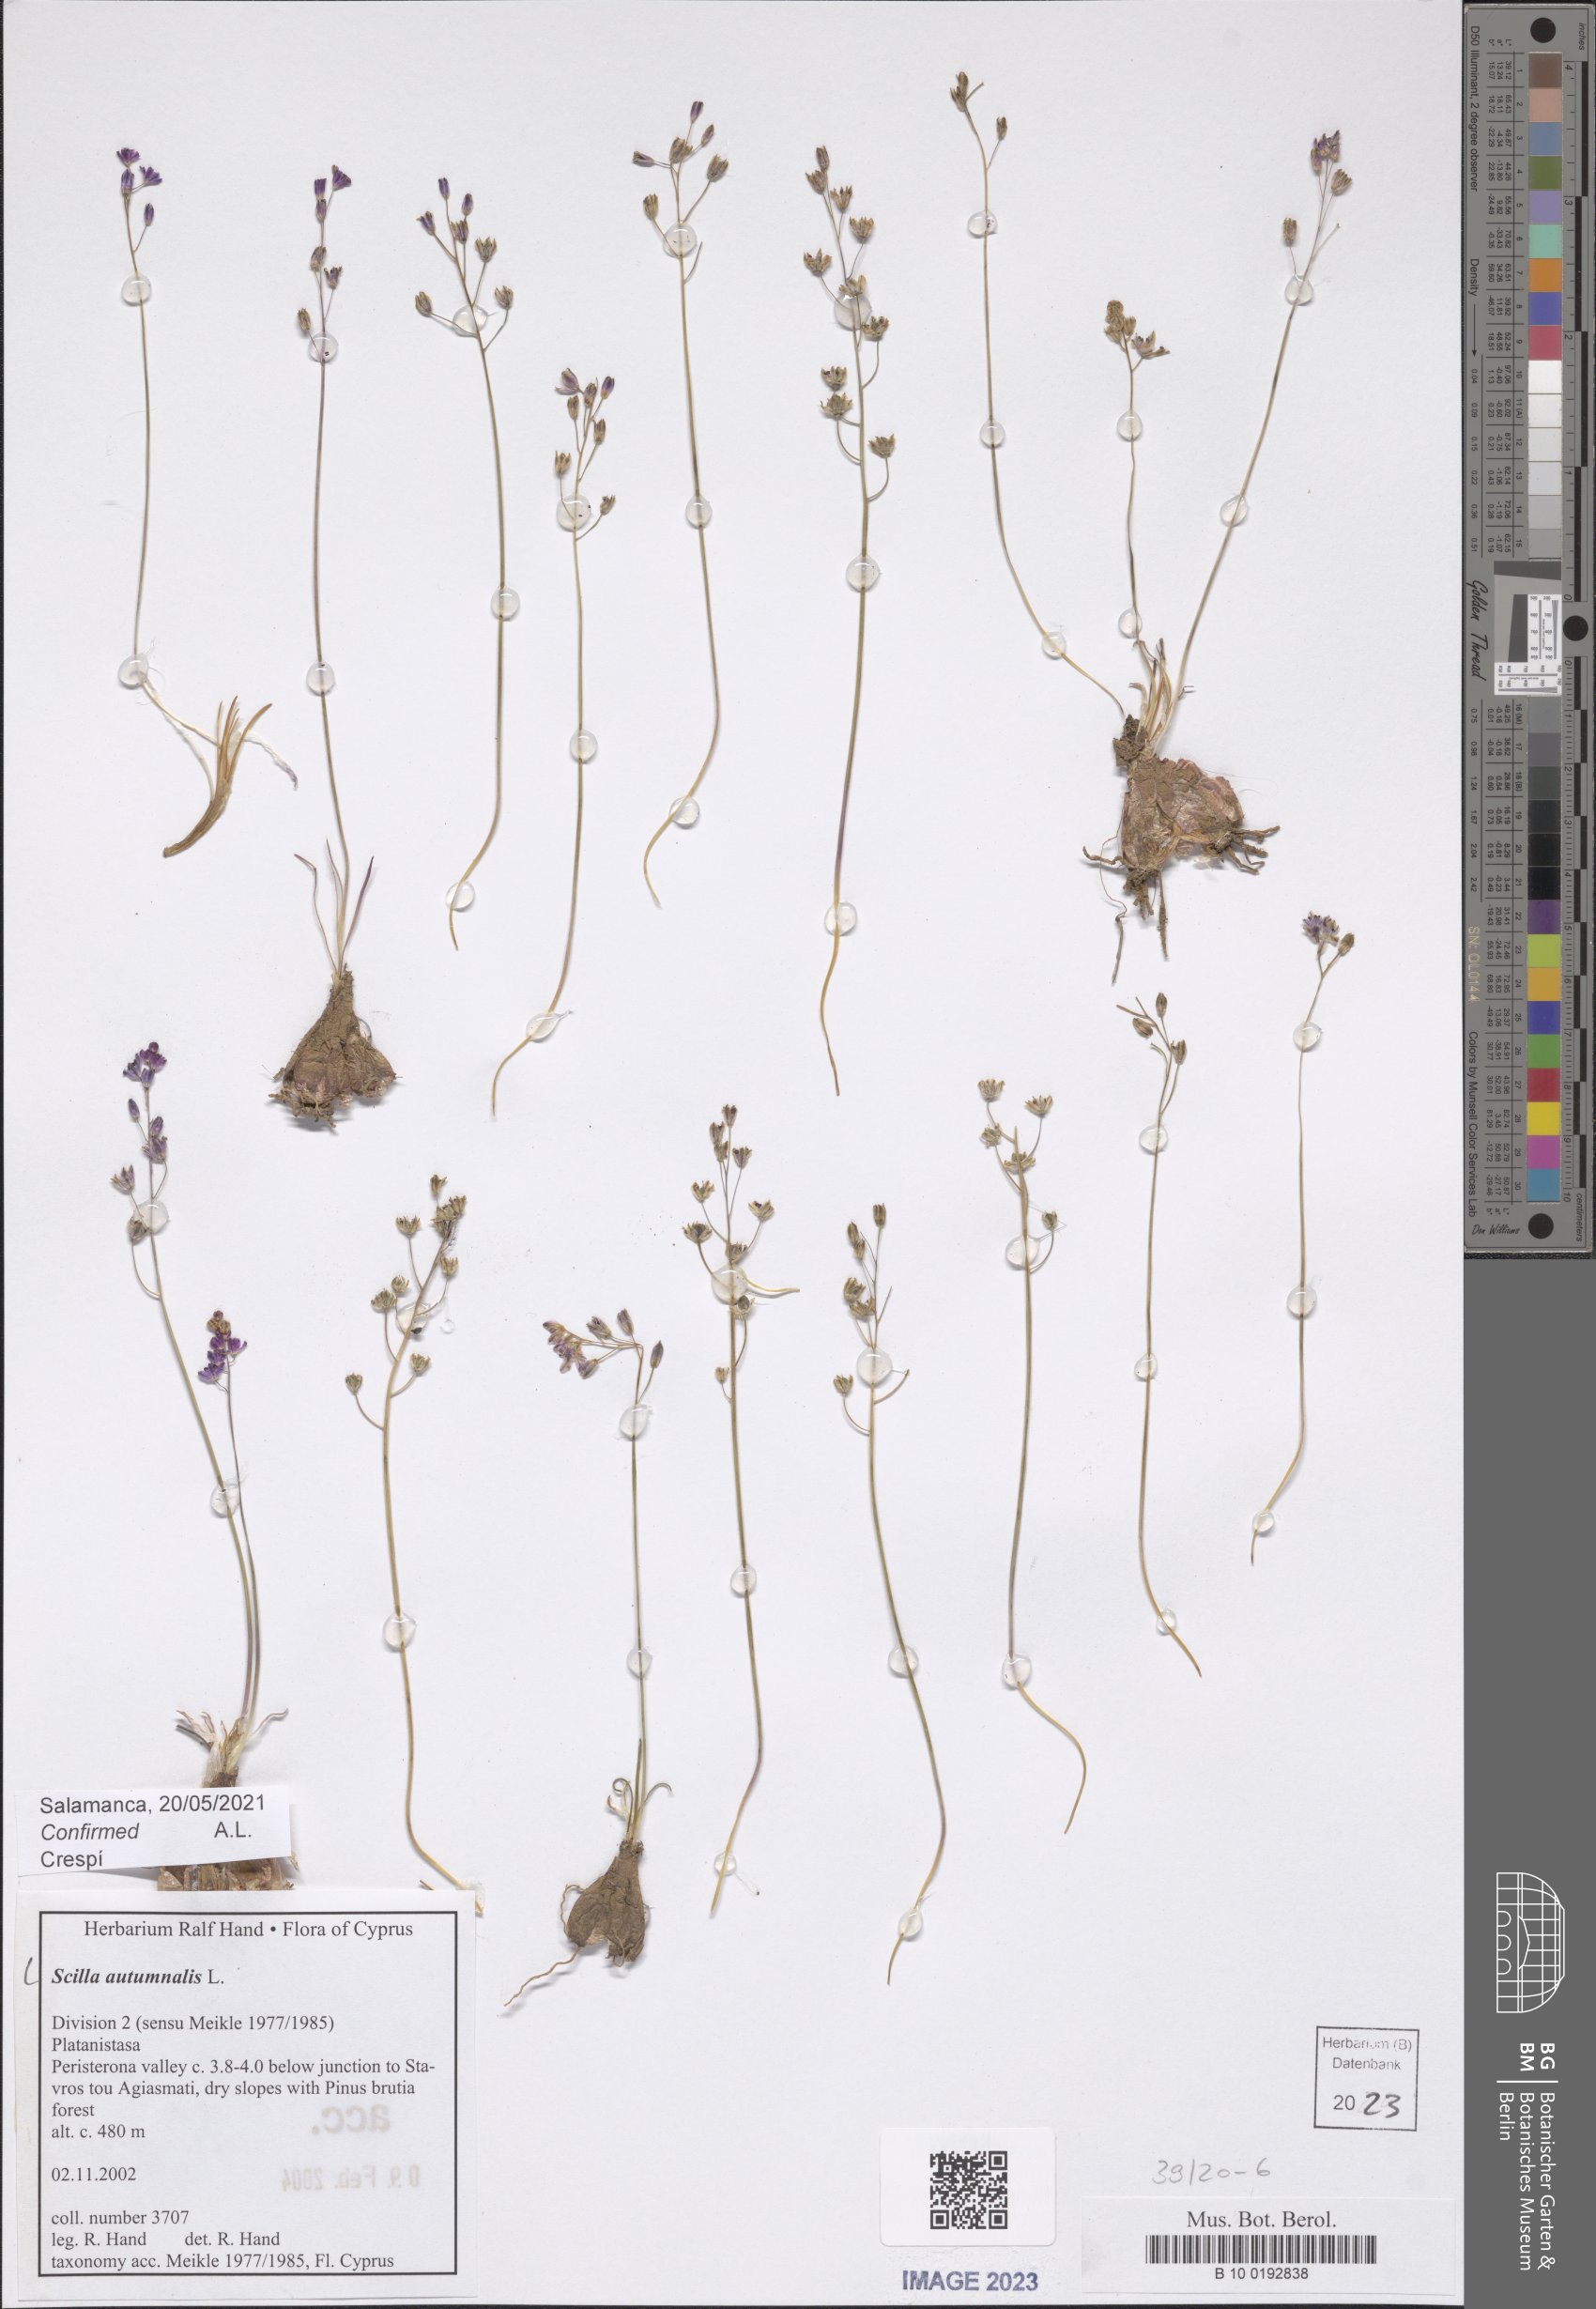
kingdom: Plantae
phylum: Tracheophyta
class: Liliopsida
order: Asparagales
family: Asparagaceae
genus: Prospero
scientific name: Prospero autumnale
